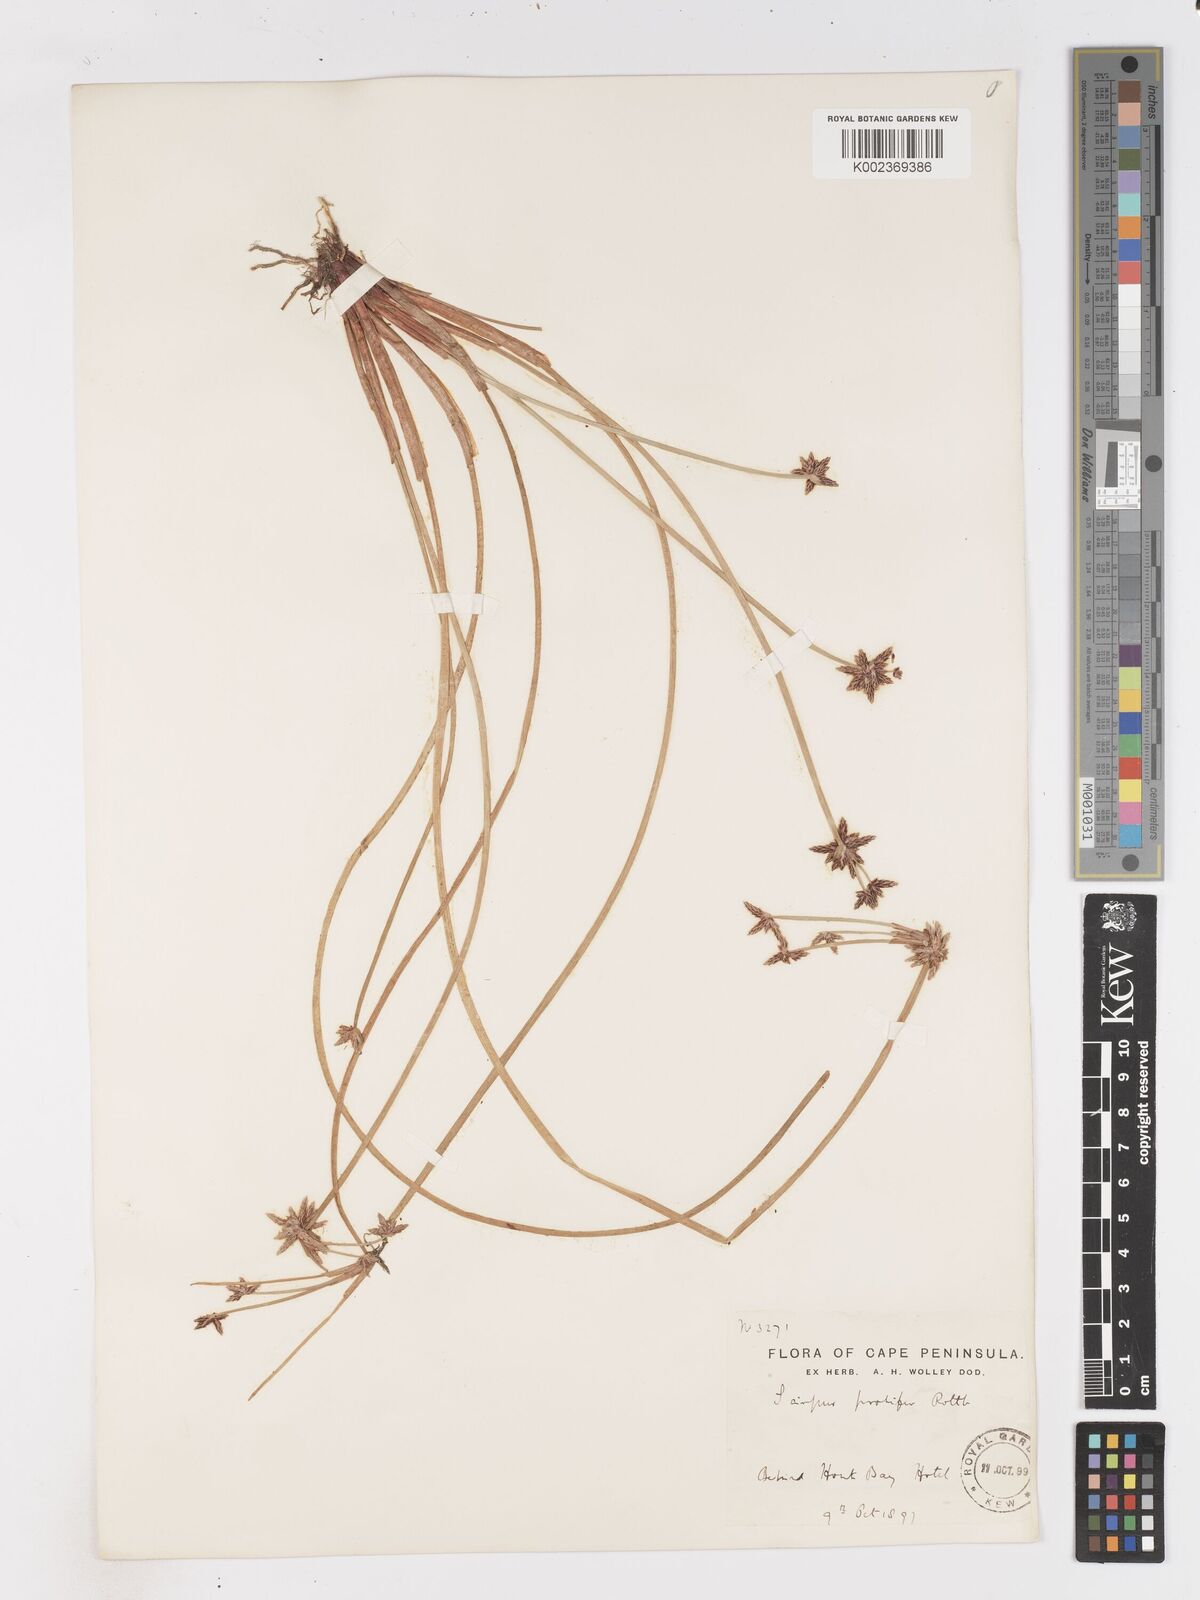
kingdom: Plantae
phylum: Tracheophyta
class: Liliopsida
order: Poales
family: Cyperaceae
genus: Isolepis
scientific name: Isolepis prolifera
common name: Proliferating bulrush
